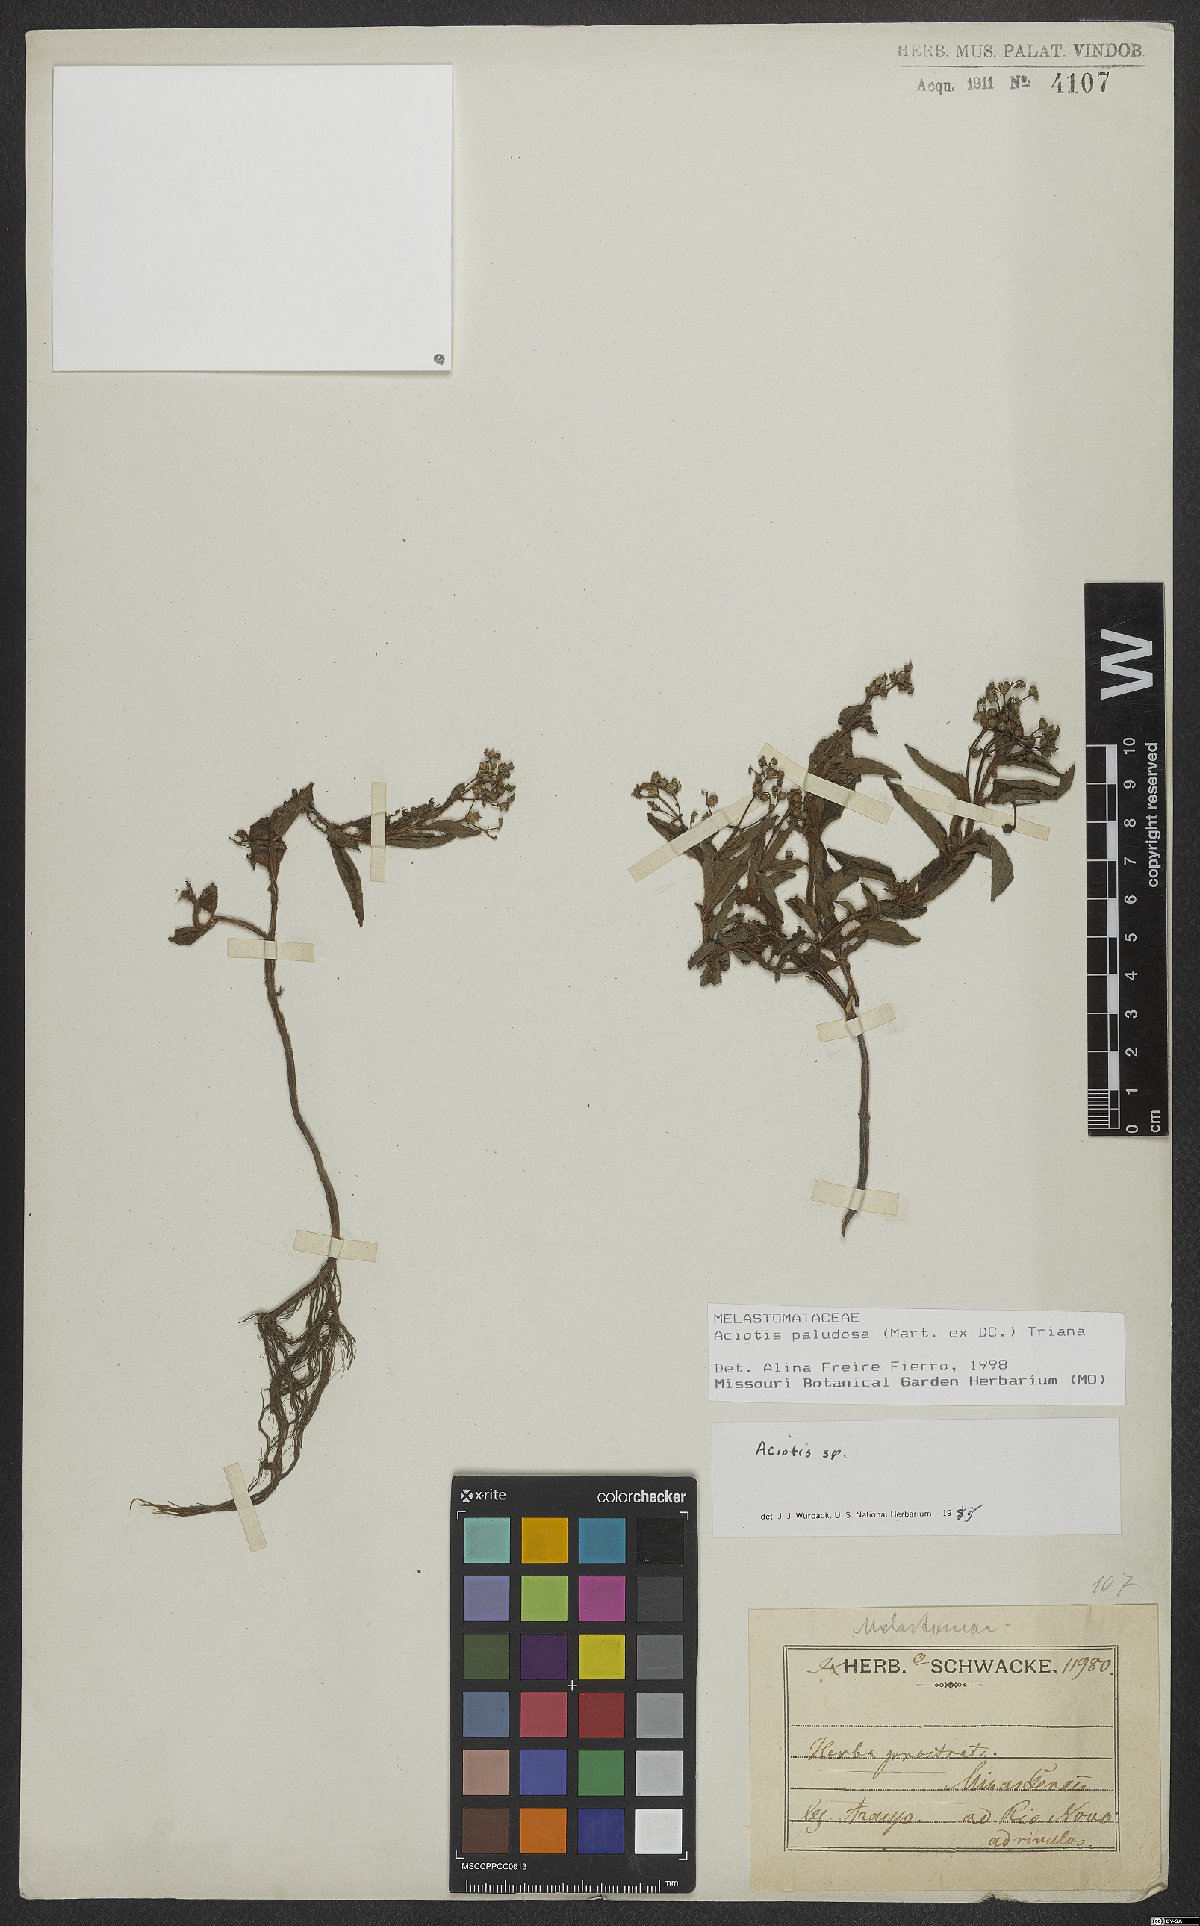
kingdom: Plantae
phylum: Tracheophyta
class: Magnoliopsida
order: Myrtales
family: Melastomataceae
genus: Aciotis
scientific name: Aciotis paludosa
